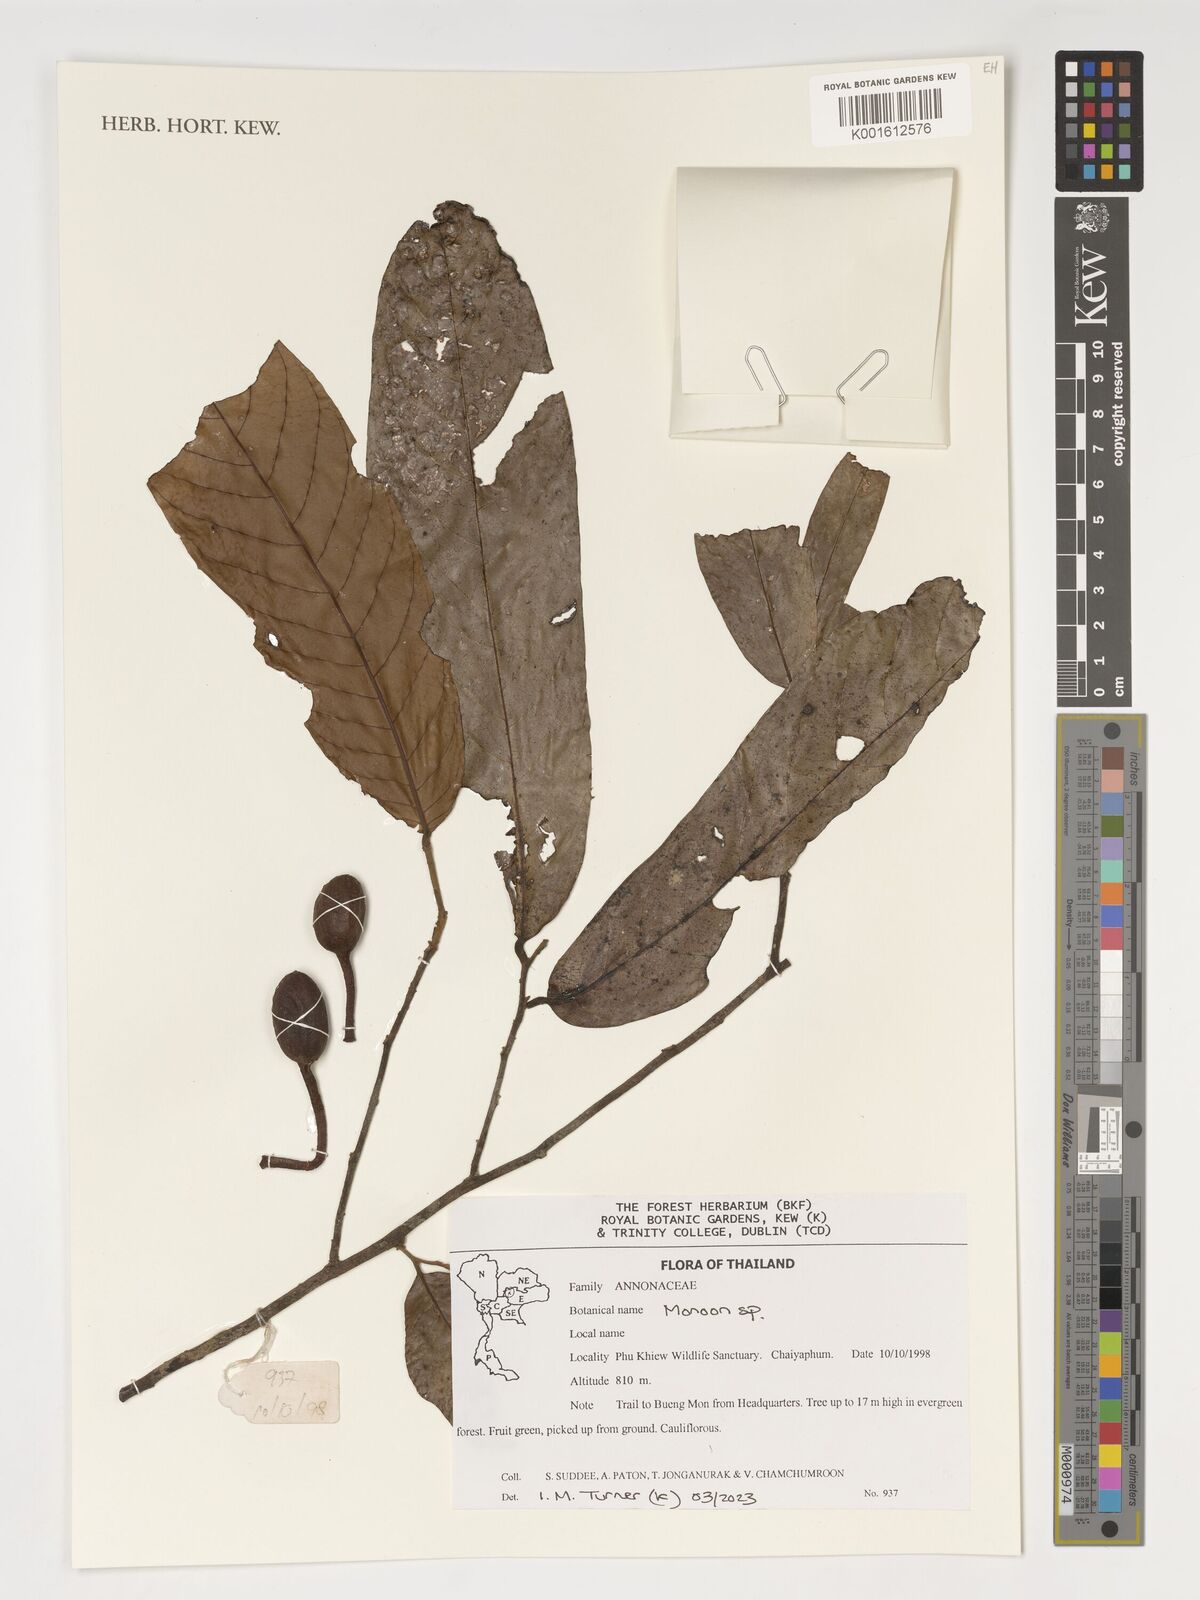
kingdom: Plantae
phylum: Tracheophyta
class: Magnoliopsida
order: Magnoliales
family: Annonaceae
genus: Monoon
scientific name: Monoon
